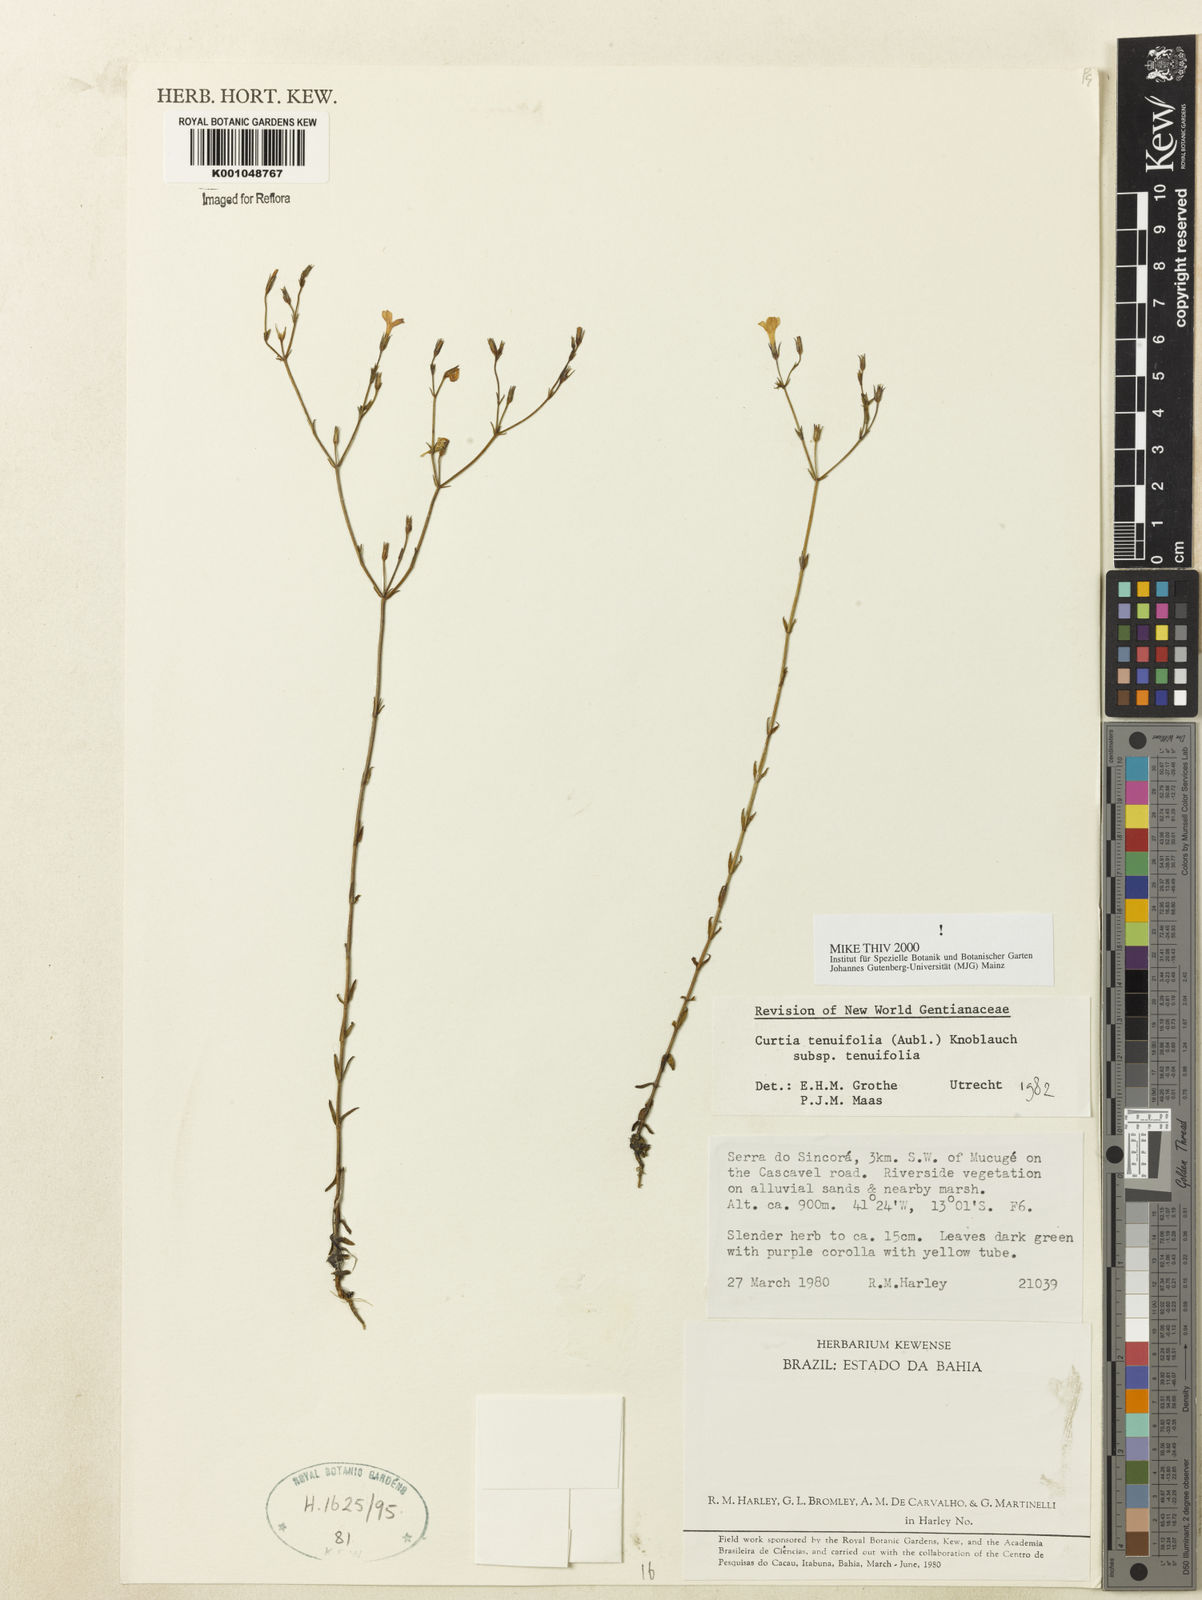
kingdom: Plantae
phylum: Tracheophyta
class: Magnoliopsida
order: Gentianales
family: Gentianaceae
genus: Curtia
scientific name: Curtia tenuifolia
